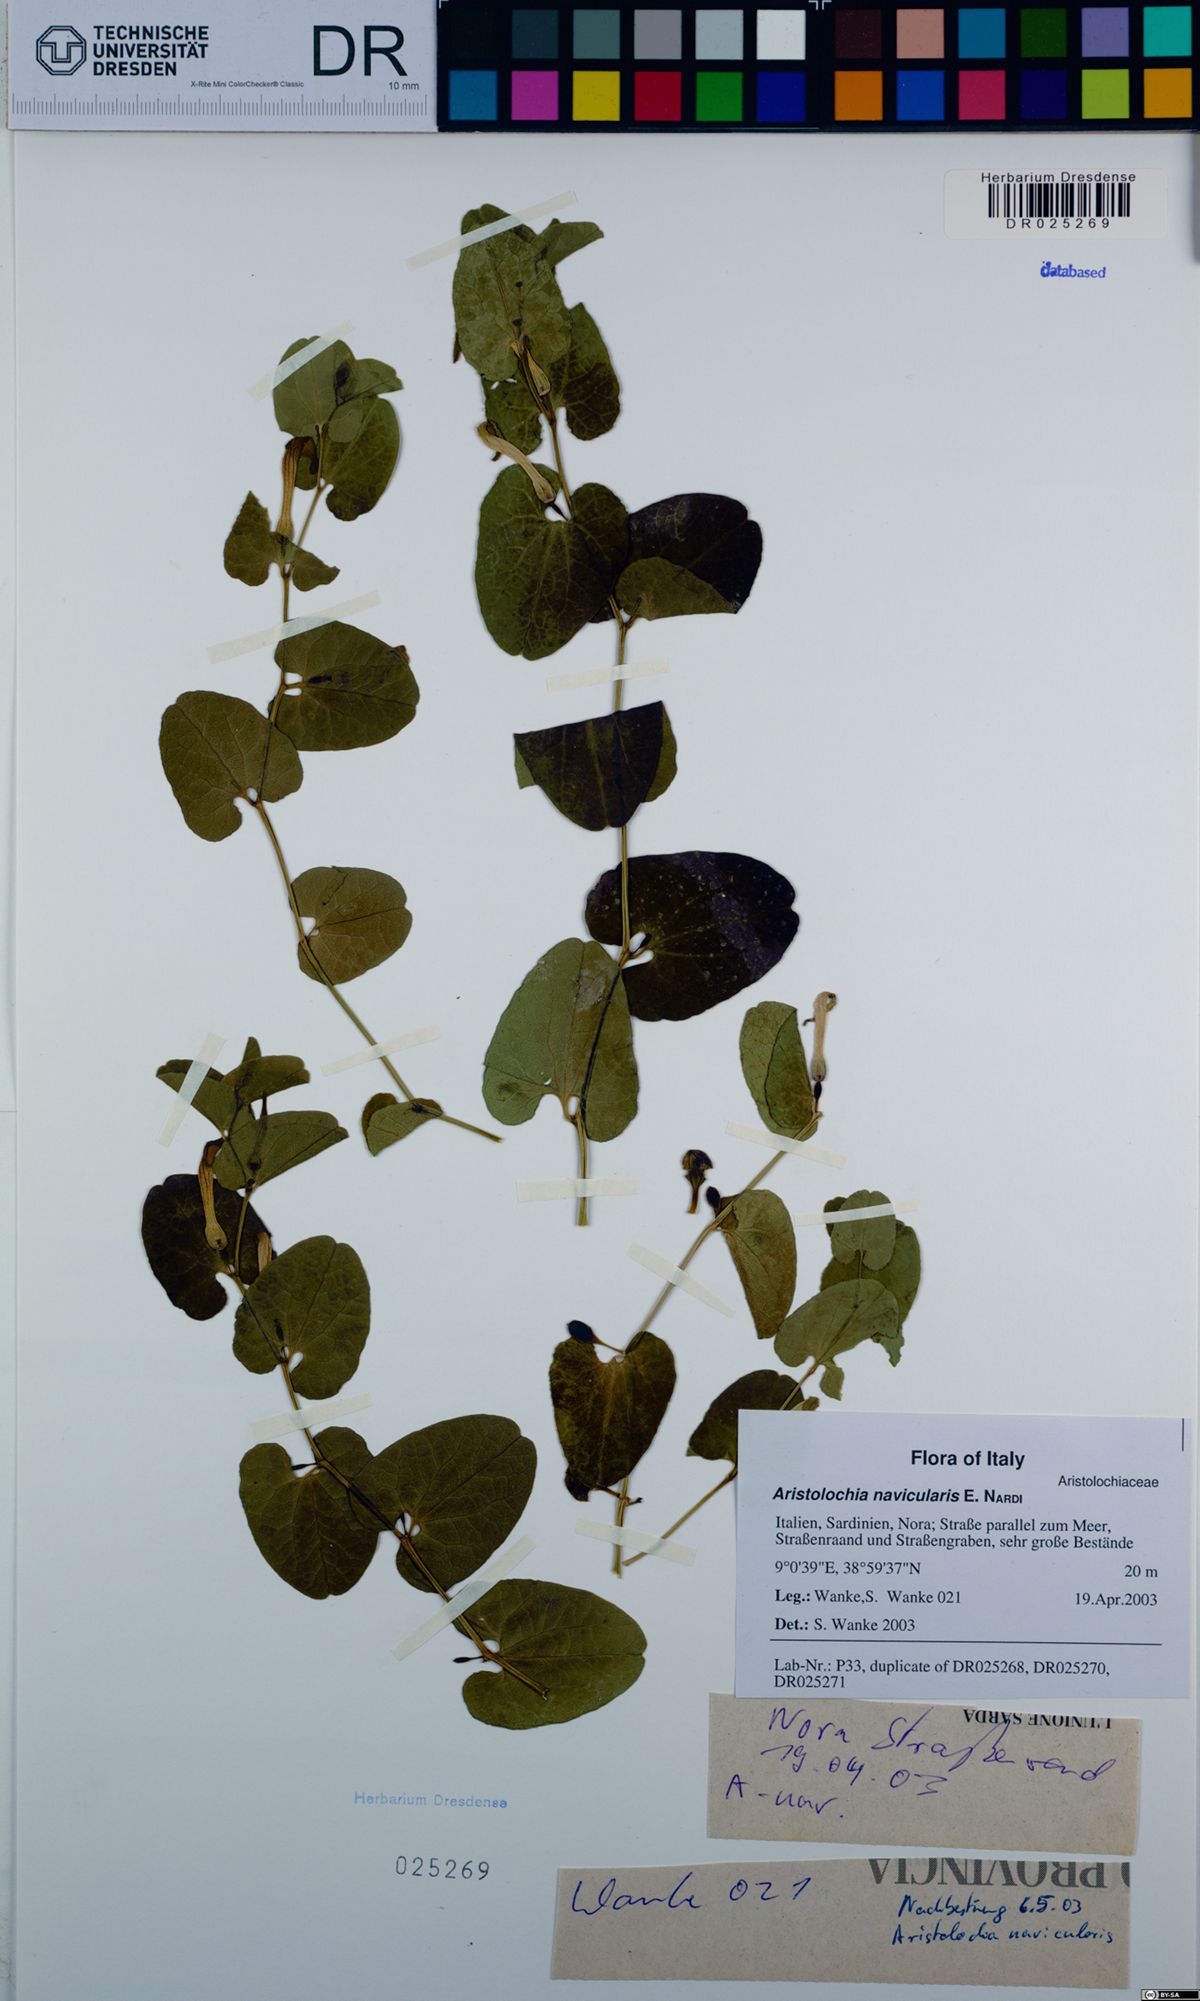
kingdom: Plantae
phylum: Tracheophyta
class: Magnoliopsida
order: Piperales
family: Aristolochiaceae
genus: Aristolochia
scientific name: Aristolochia navicularis
